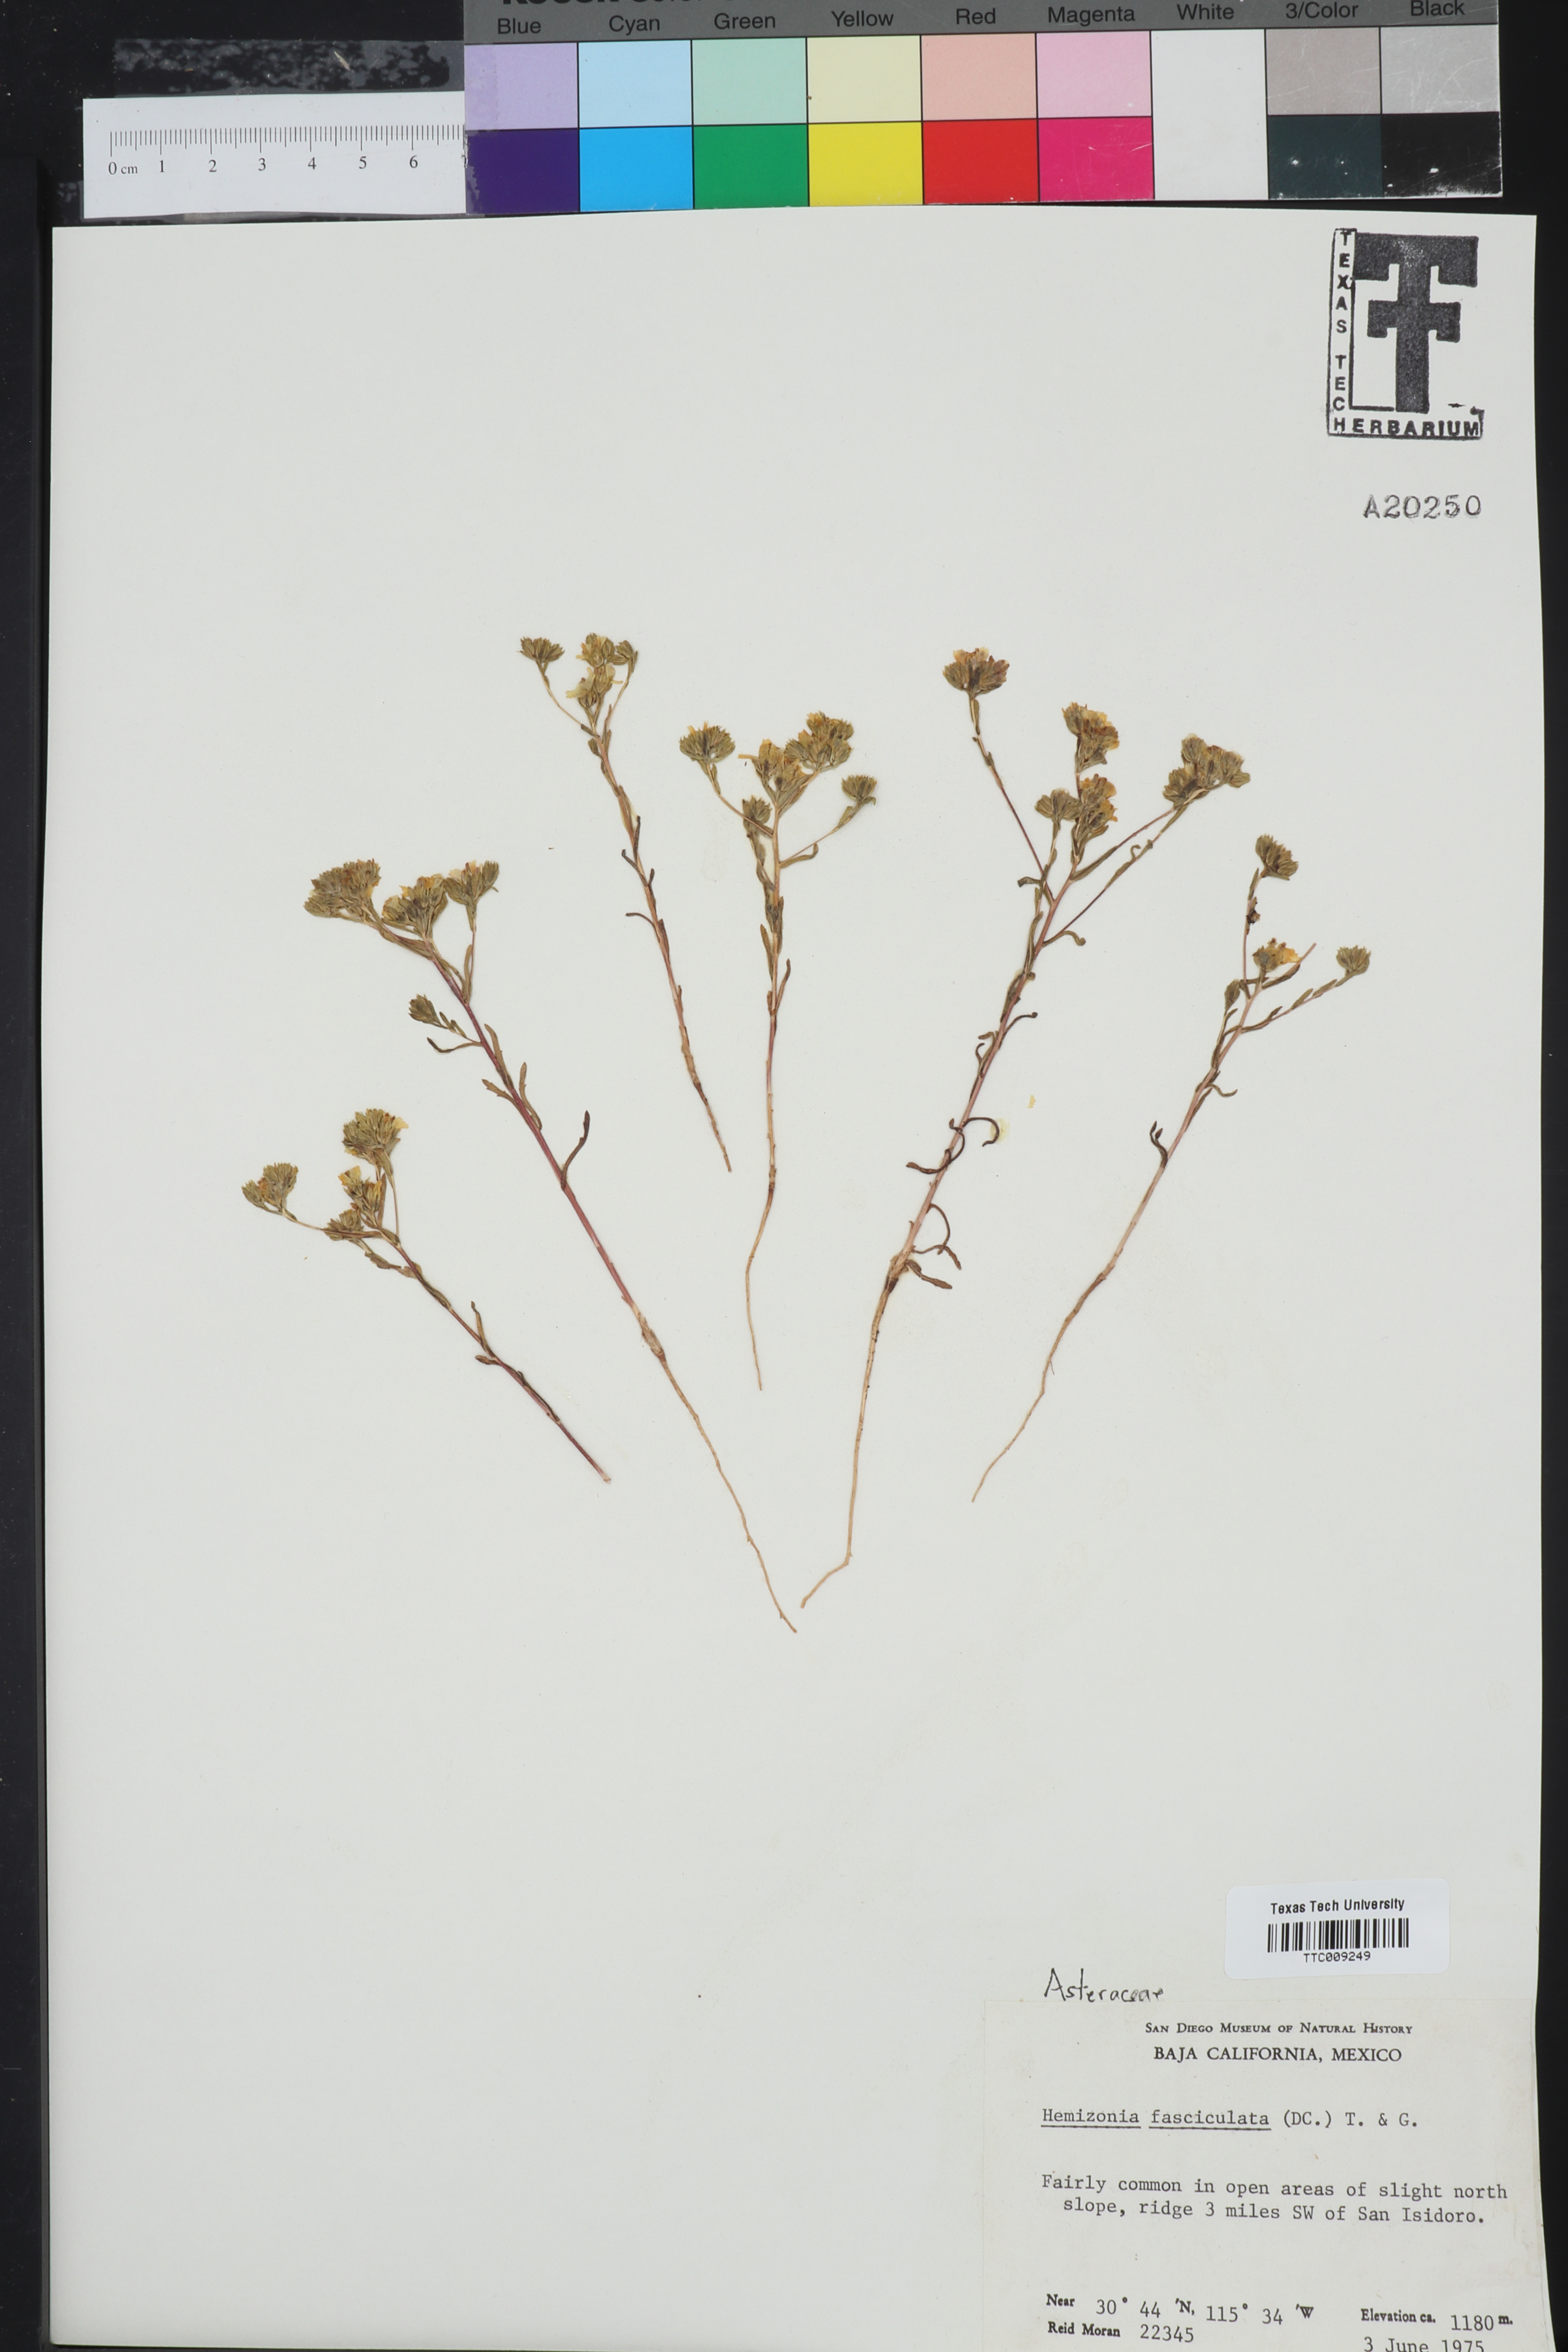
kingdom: Plantae
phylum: Tracheophyta
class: Magnoliopsida
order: Asterales
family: Asteraceae
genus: Deinandra
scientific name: Deinandra fasciculata
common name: Clustered tarweed
